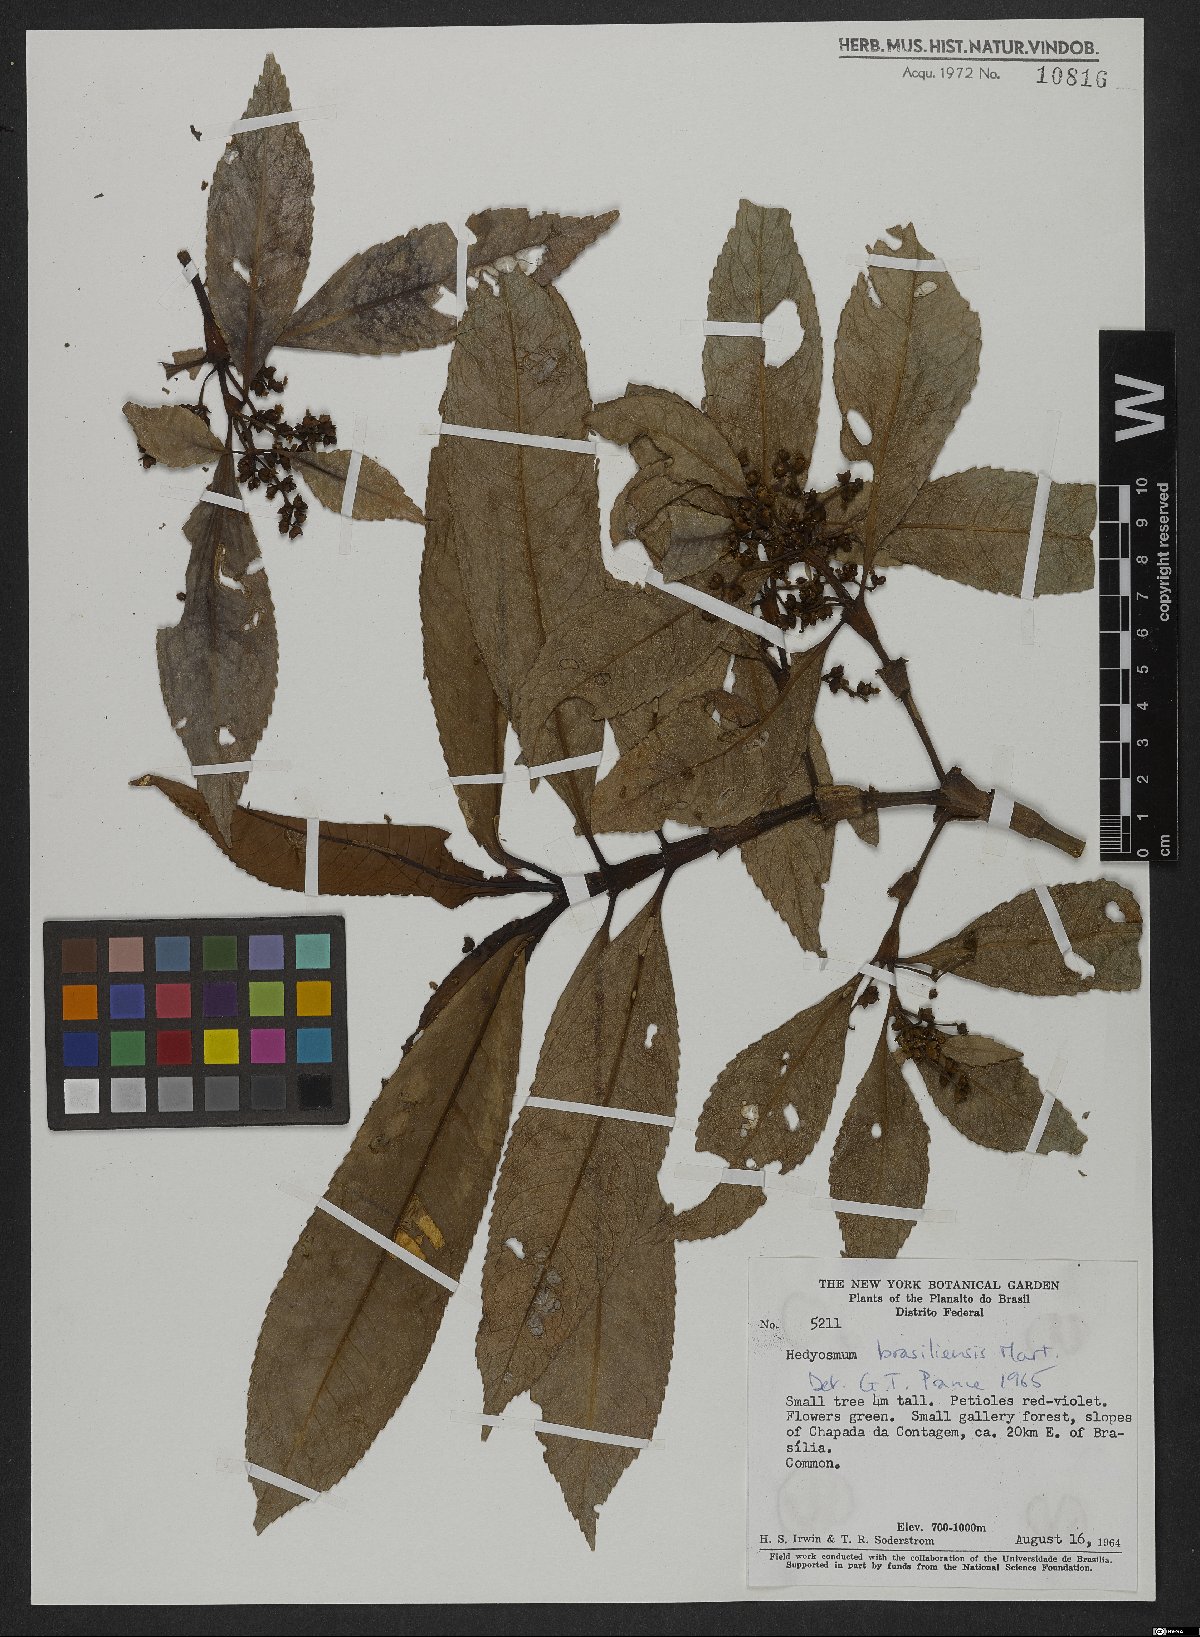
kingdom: Plantae
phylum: Tracheophyta
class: Magnoliopsida
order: Chloranthales
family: Chloranthaceae
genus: Hedyosmum
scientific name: Hedyosmum brasiliense
